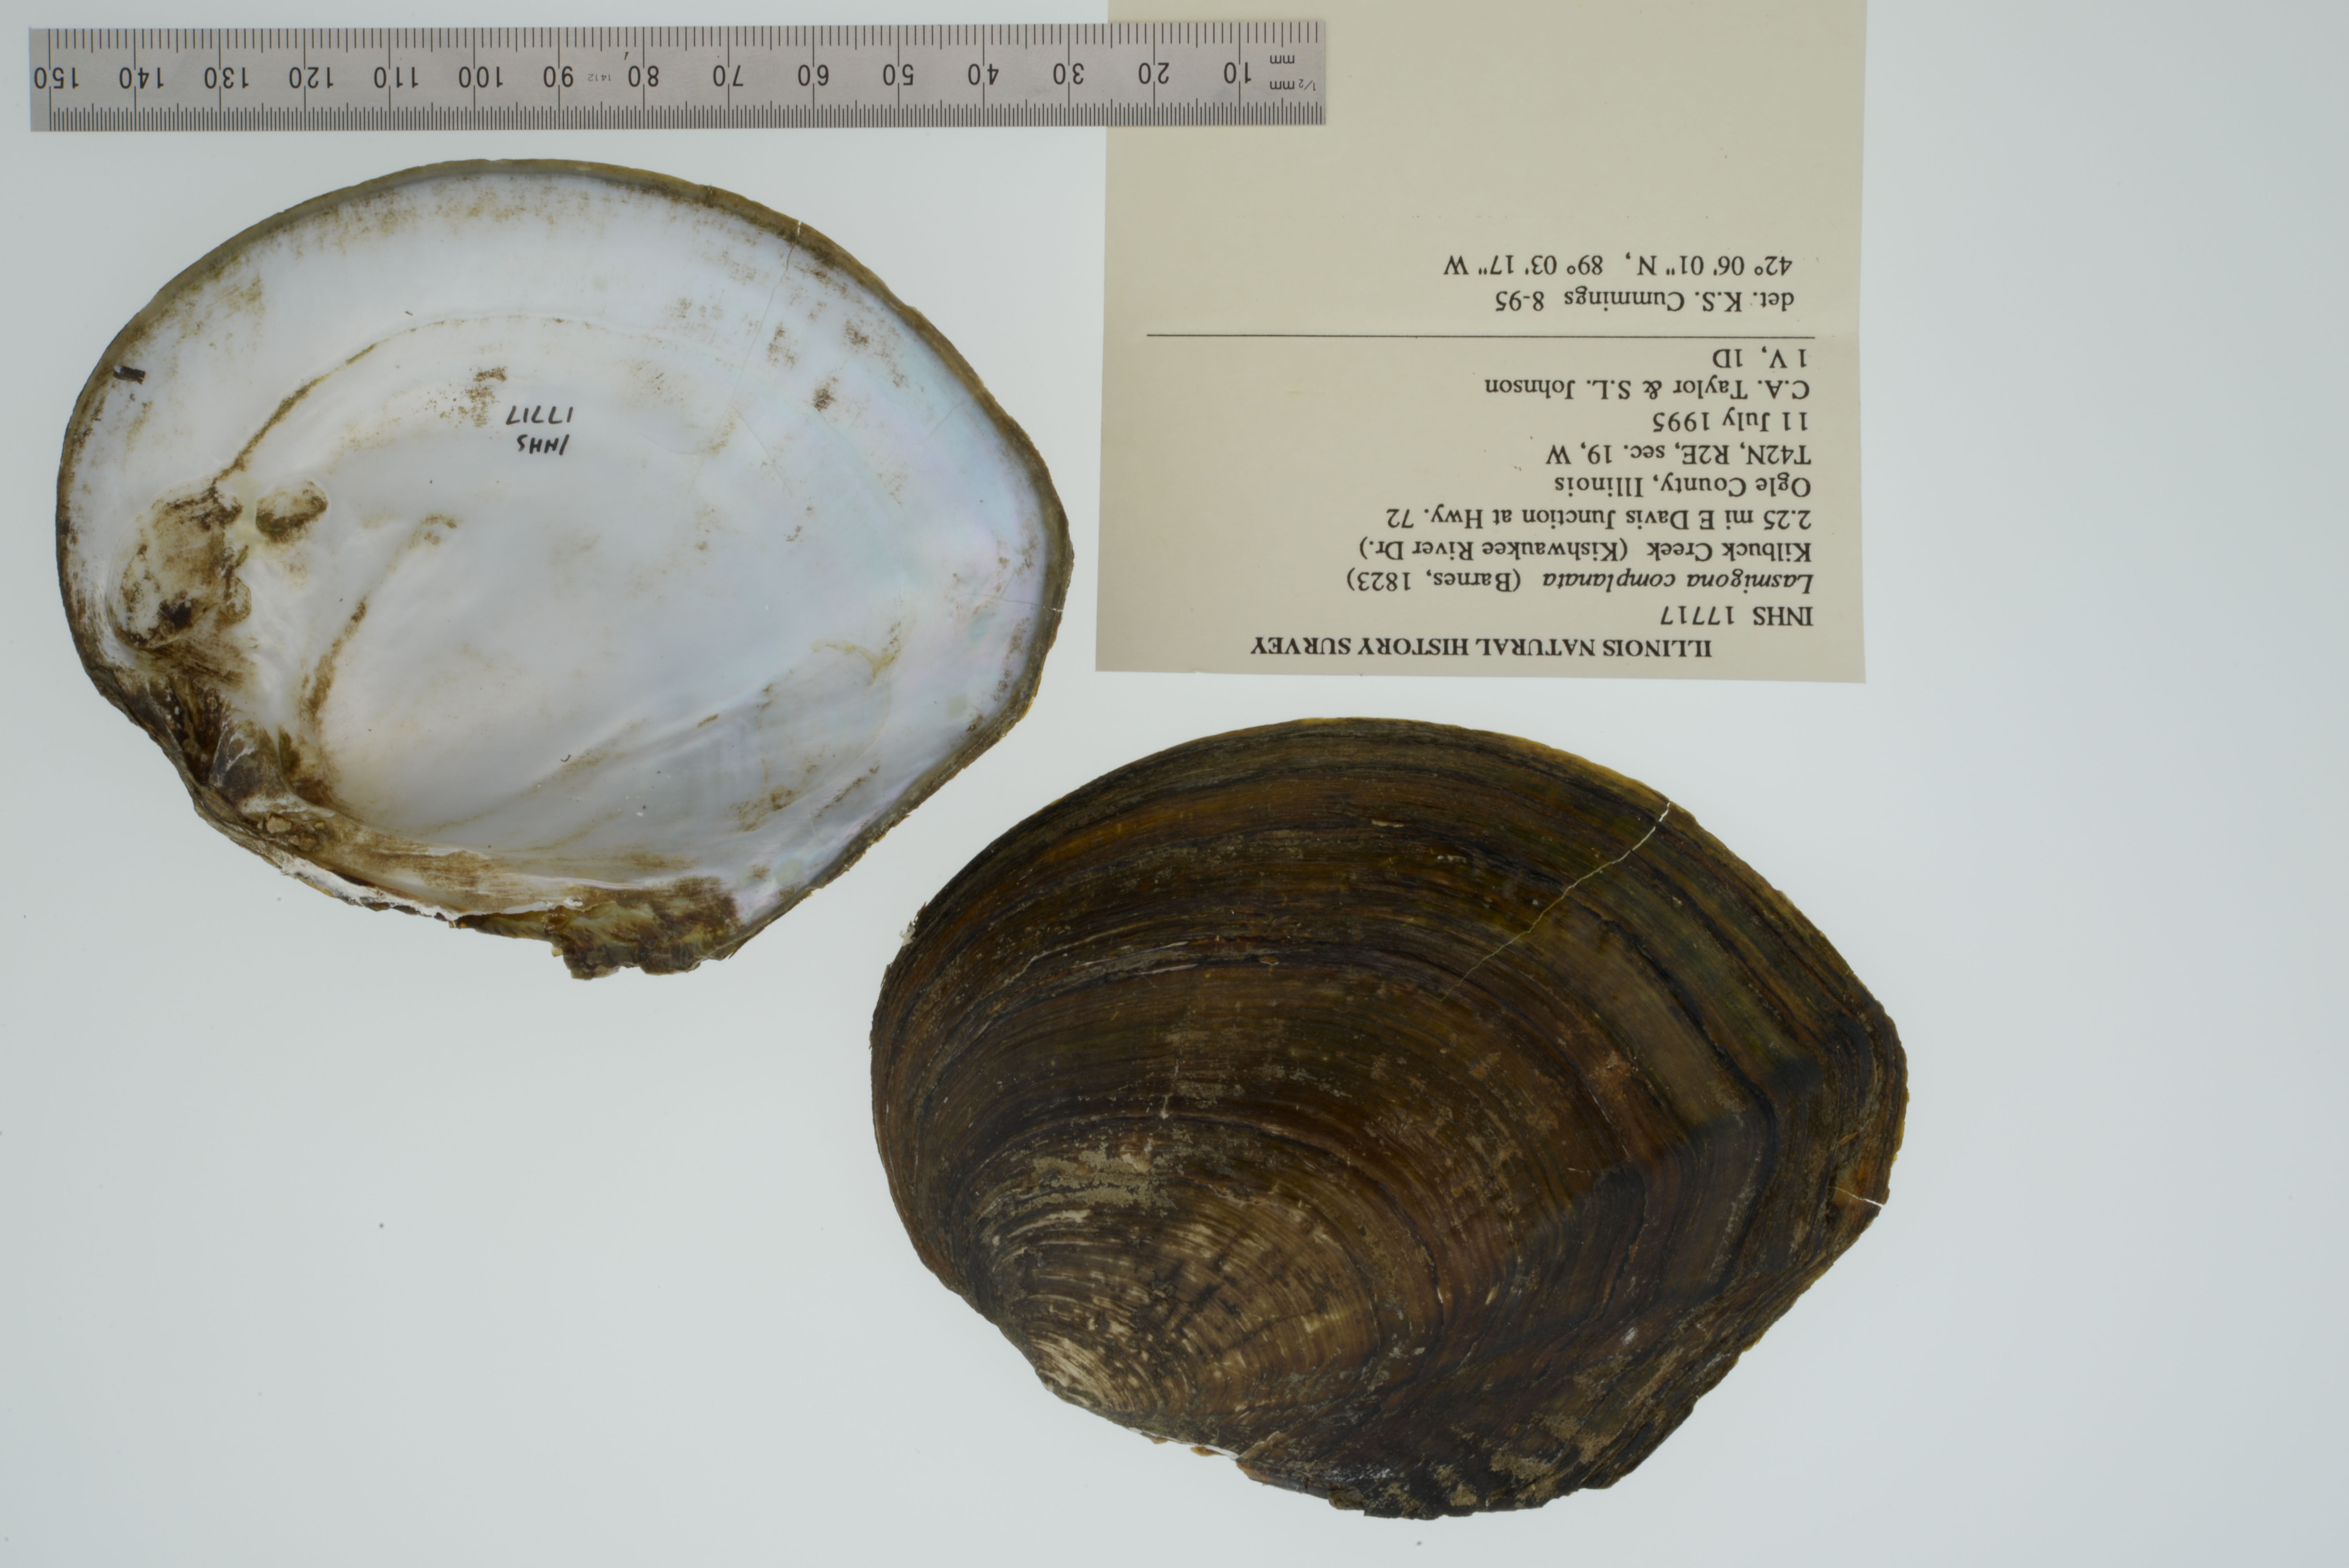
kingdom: Animalia
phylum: Mollusca
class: Bivalvia
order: Unionida
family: Unionidae
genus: Lasmigona
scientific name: Lasmigona complanata
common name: White heelsplitter
